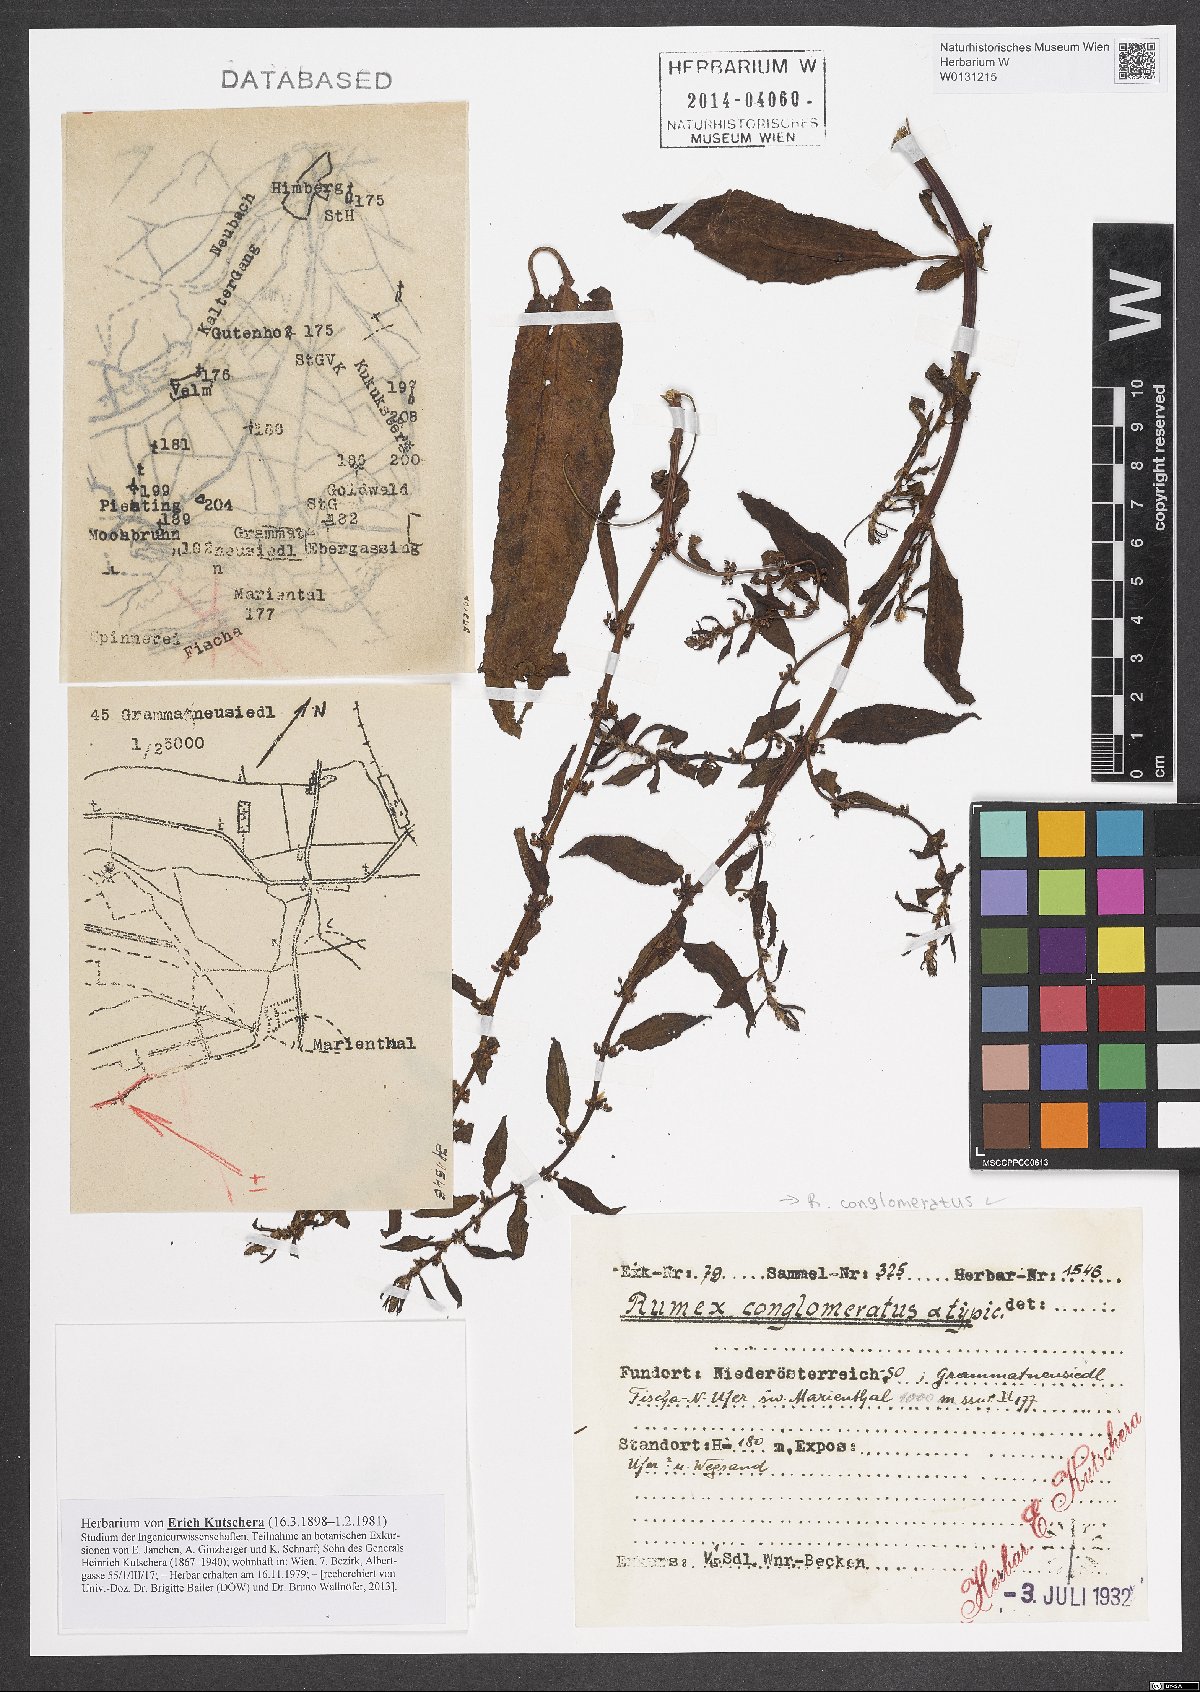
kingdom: Plantae
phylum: Tracheophyta
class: Magnoliopsida
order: Caryophyllales
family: Polygonaceae
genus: Rumex
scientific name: Rumex conglomeratus
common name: Clustered dock
